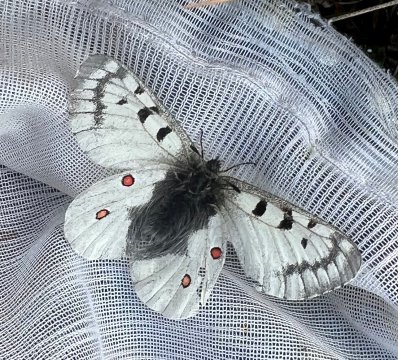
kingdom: Animalia
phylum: Arthropoda
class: Insecta
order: Lepidoptera
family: Papilionidae
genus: Parnassius
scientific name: Parnassius phoebus
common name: Phoebus Parnassian
